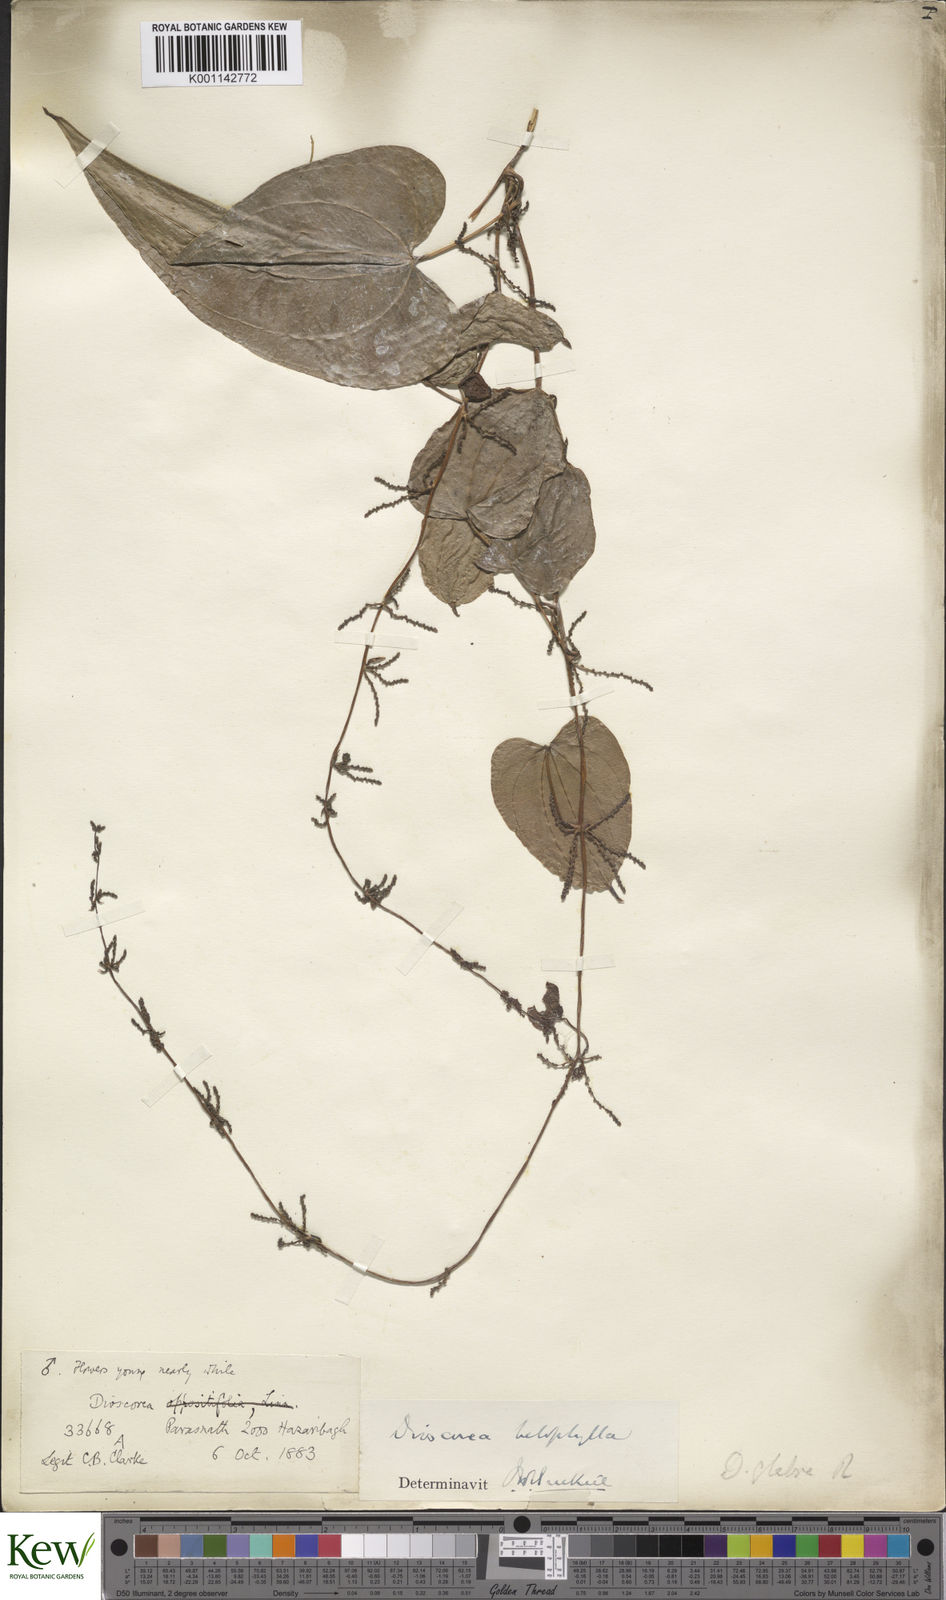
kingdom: Plantae
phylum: Tracheophyta
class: Liliopsida
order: Dioscoreales
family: Dioscoreaceae
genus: Dioscorea
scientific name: Dioscorea belophylla
